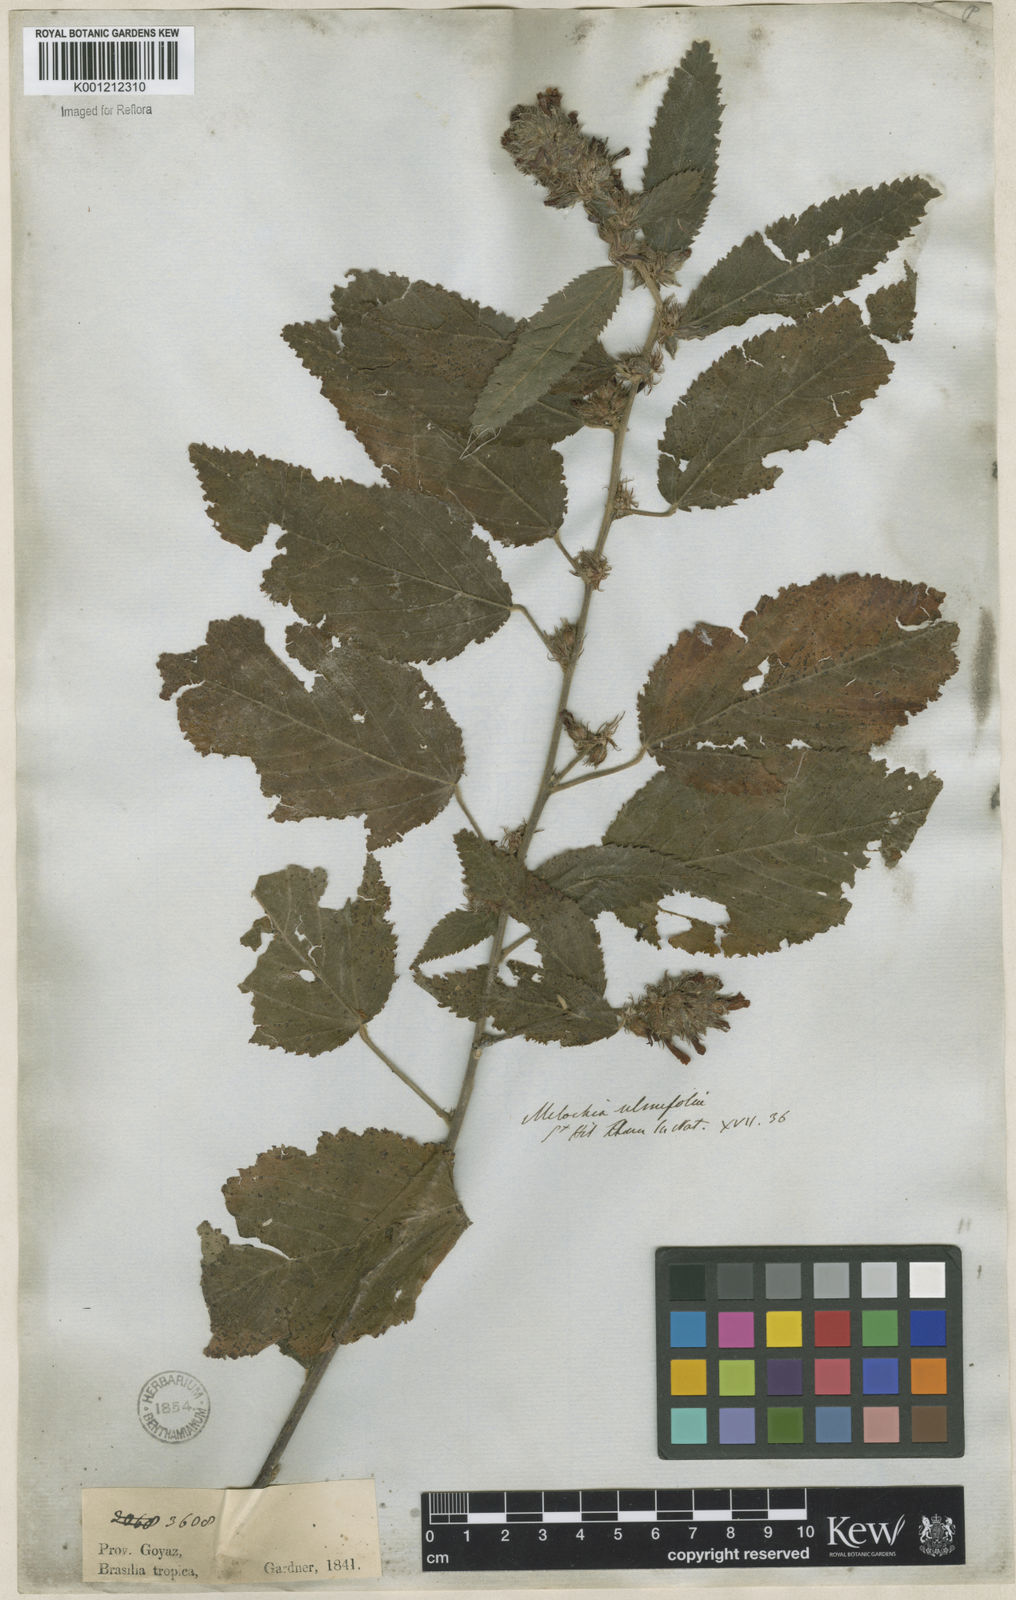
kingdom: Plantae
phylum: Tracheophyta
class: Magnoliopsida
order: Malvales
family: Malvaceae
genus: Melochia
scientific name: Melochia gardneri
